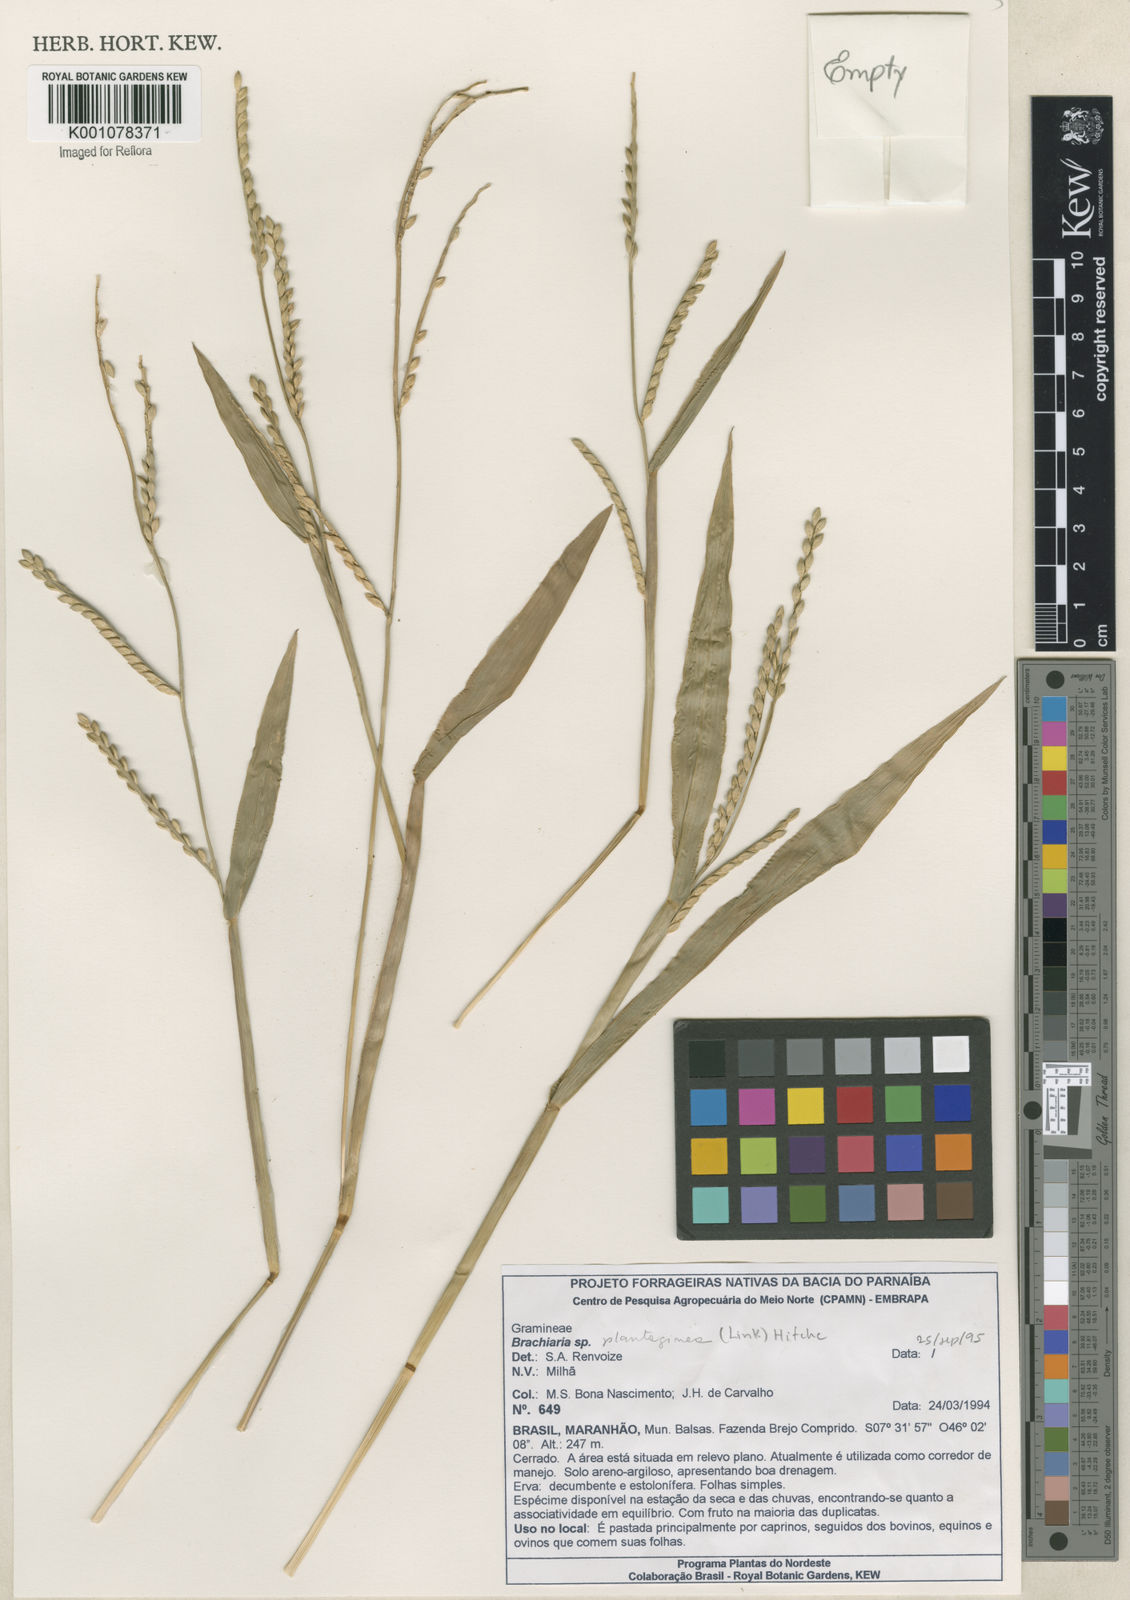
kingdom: Plantae
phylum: Tracheophyta
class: Liliopsida
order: Poales
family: Poaceae
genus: Urochloa
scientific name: Urochloa plantaginea
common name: Plantain signalgrass
